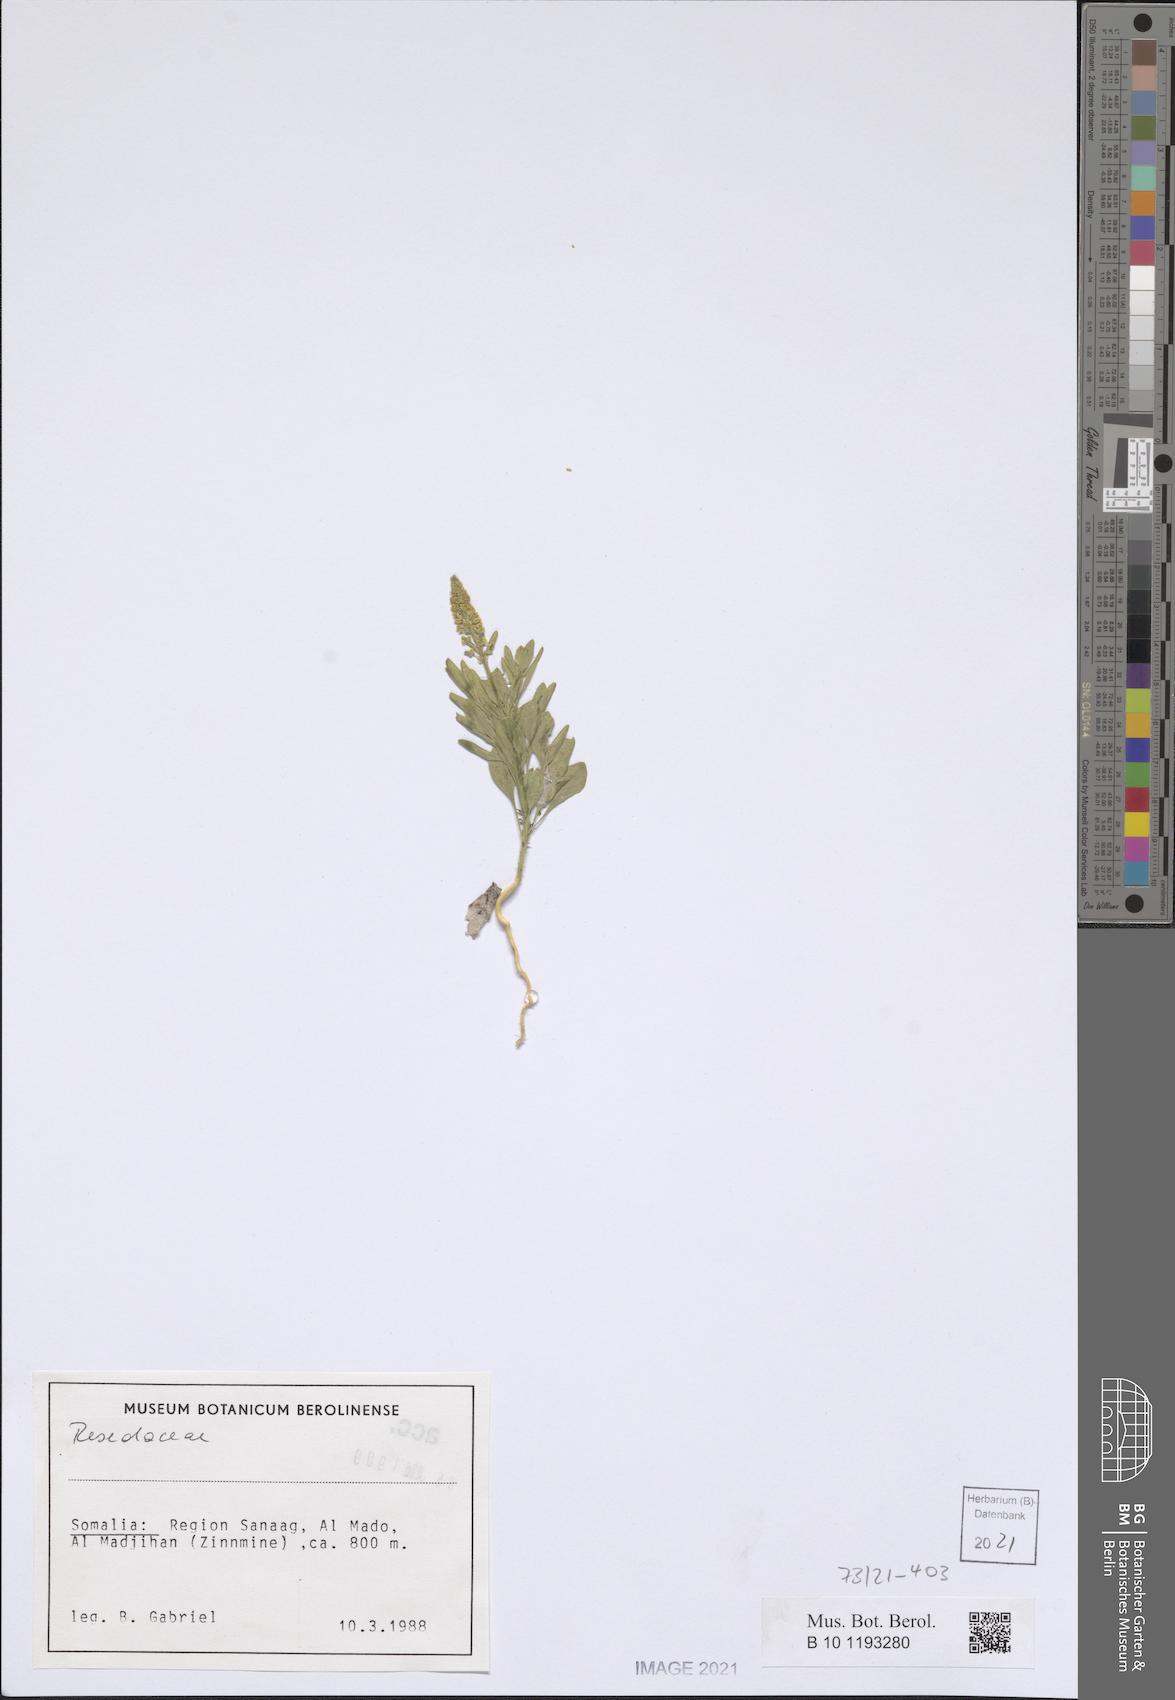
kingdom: Plantae
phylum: Tracheophyta
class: Magnoliopsida
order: Brassicales
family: Resedaceae
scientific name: Resedaceae
